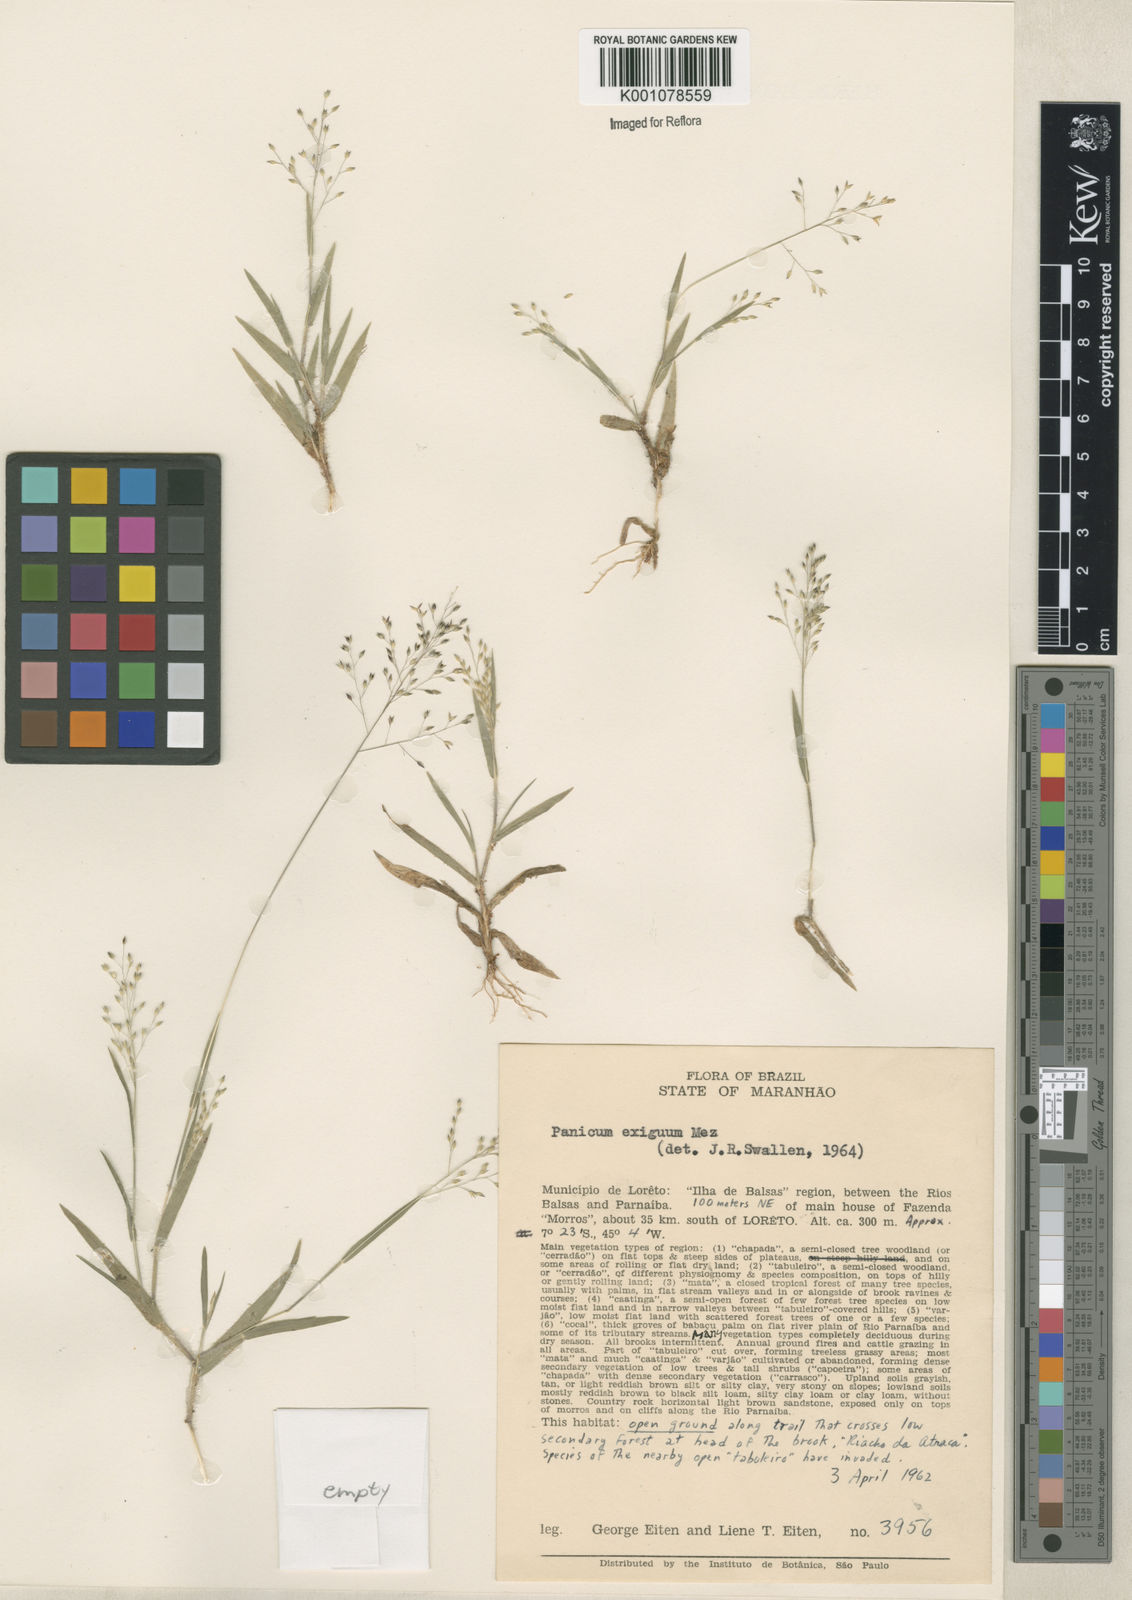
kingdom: Plantae
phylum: Tracheophyta
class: Liliopsida
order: Poales
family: Poaceae
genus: Panicum
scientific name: Panicum exiguum
